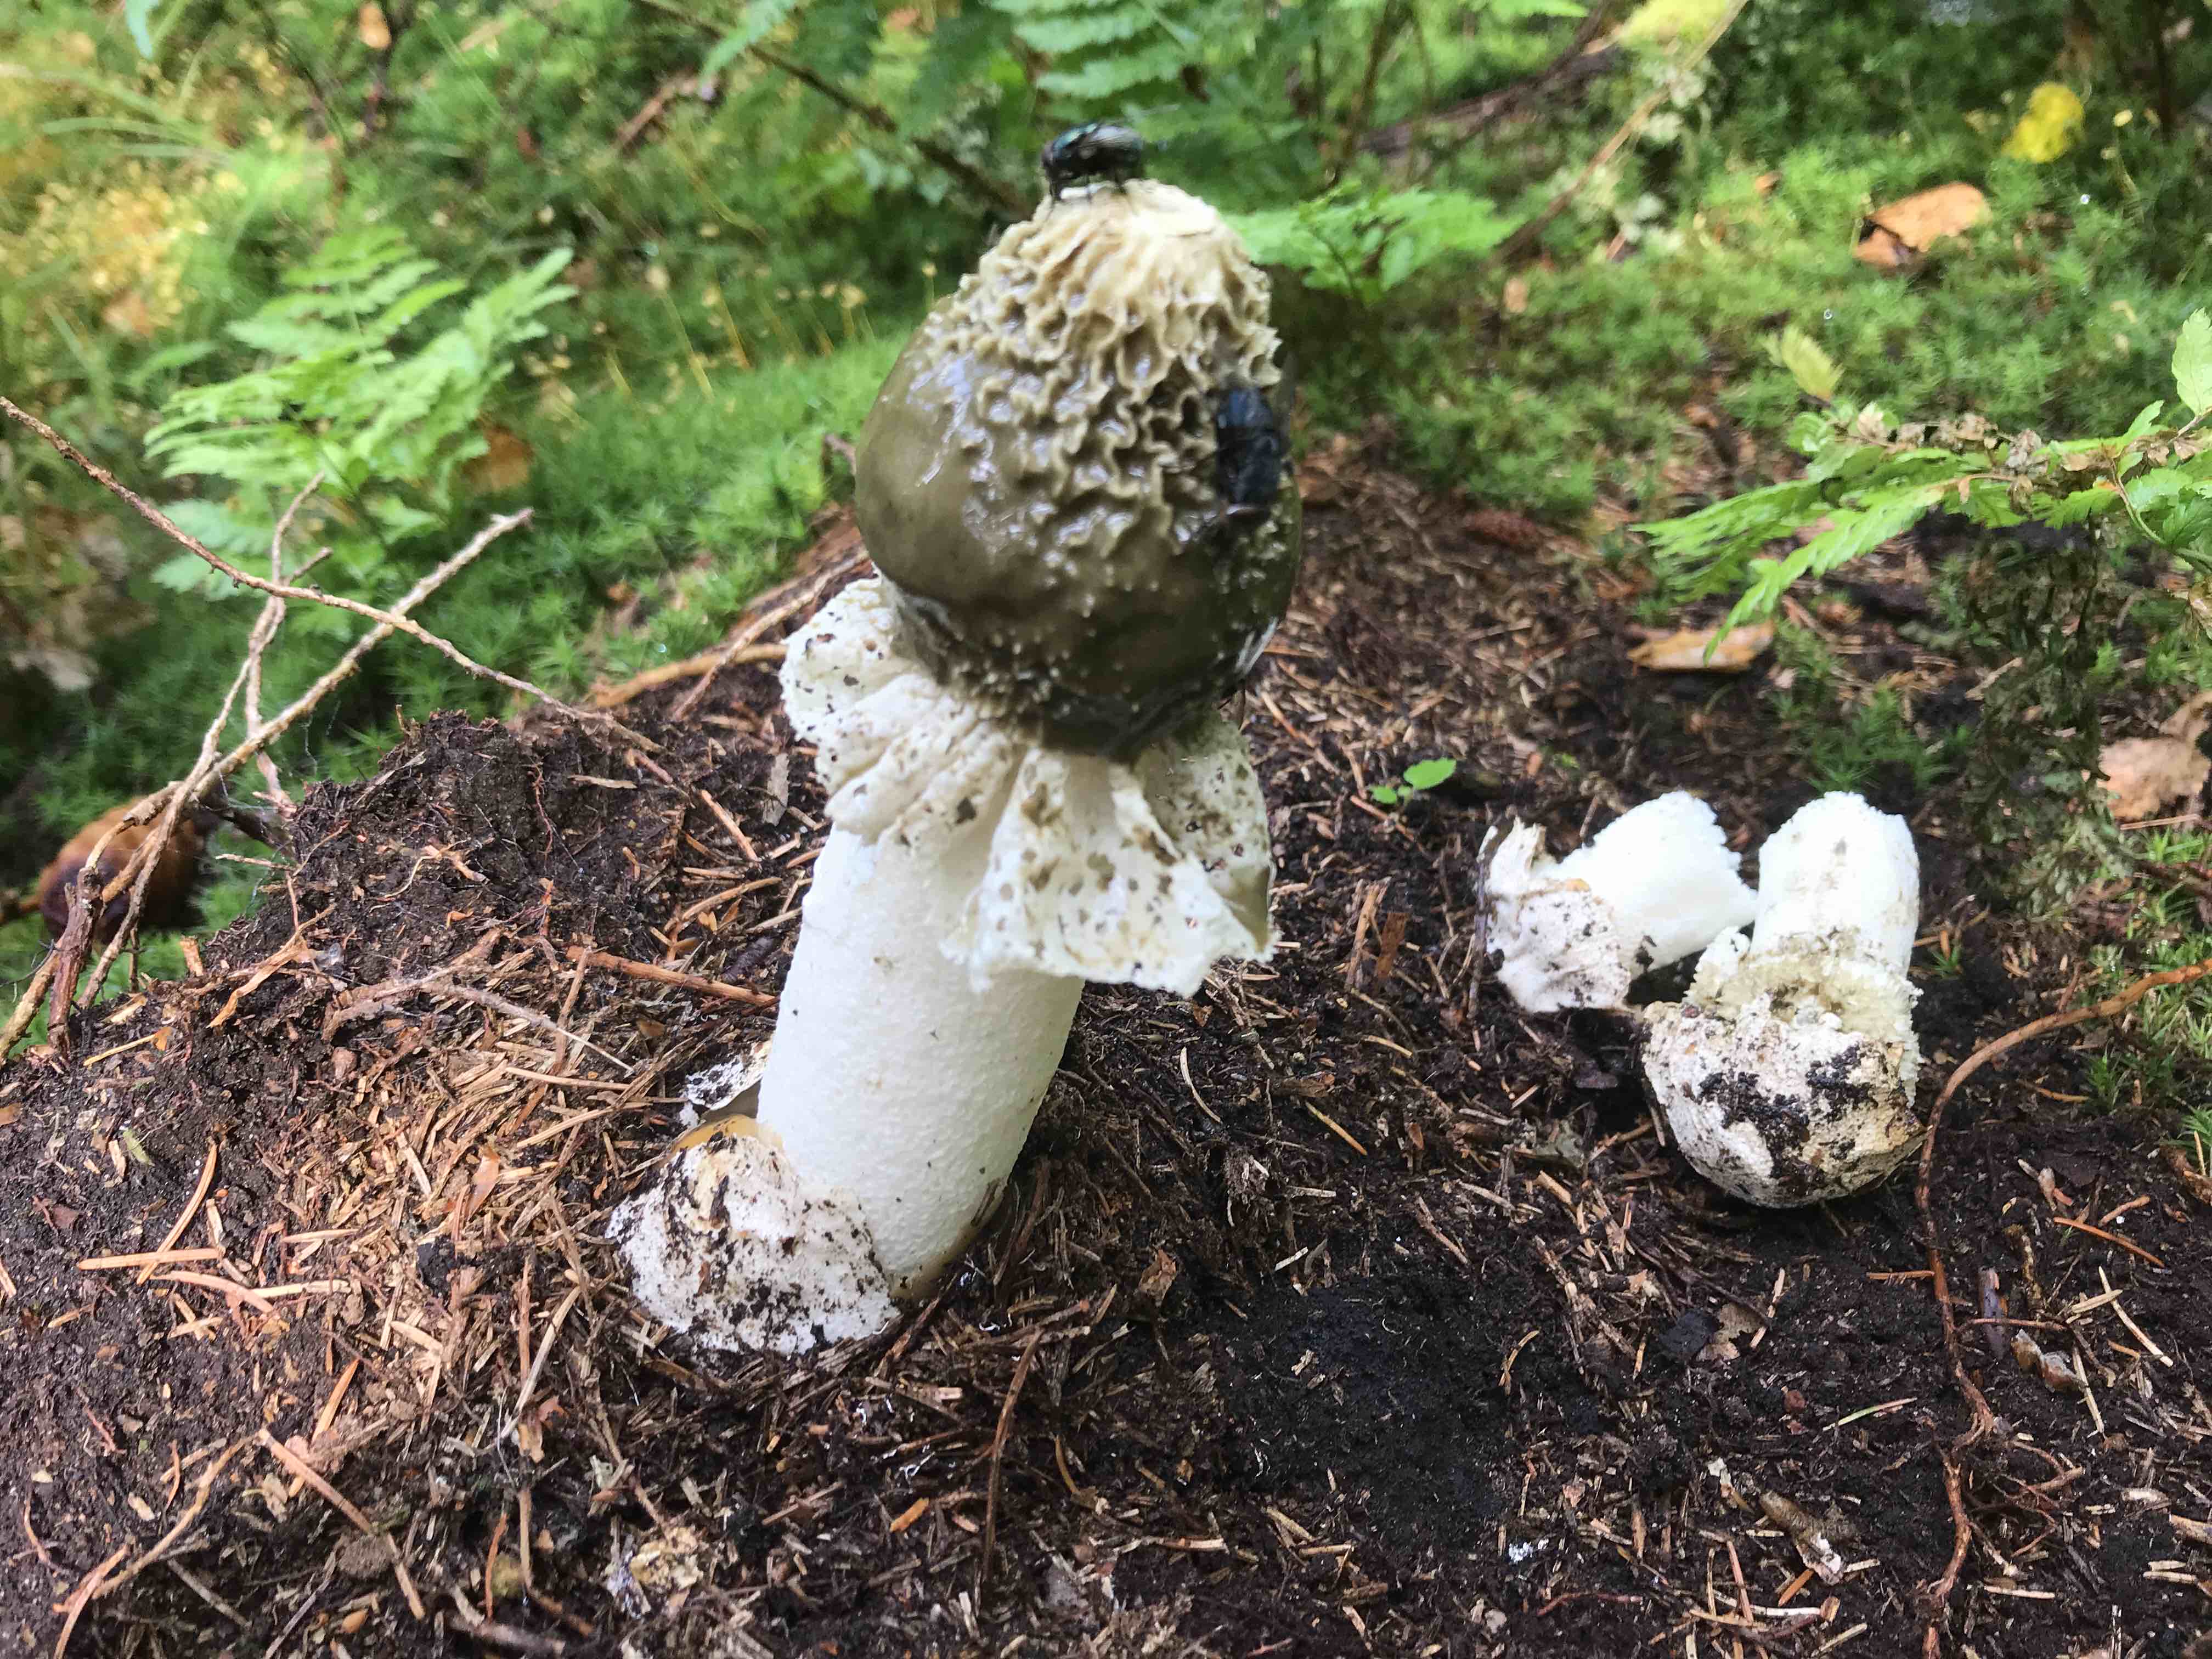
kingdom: Fungi
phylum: Basidiomycota
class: Agaricomycetes
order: Phallales
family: Phallaceae
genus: Phallus
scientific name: Phallus impudicus
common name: almindelig stinksvamp
